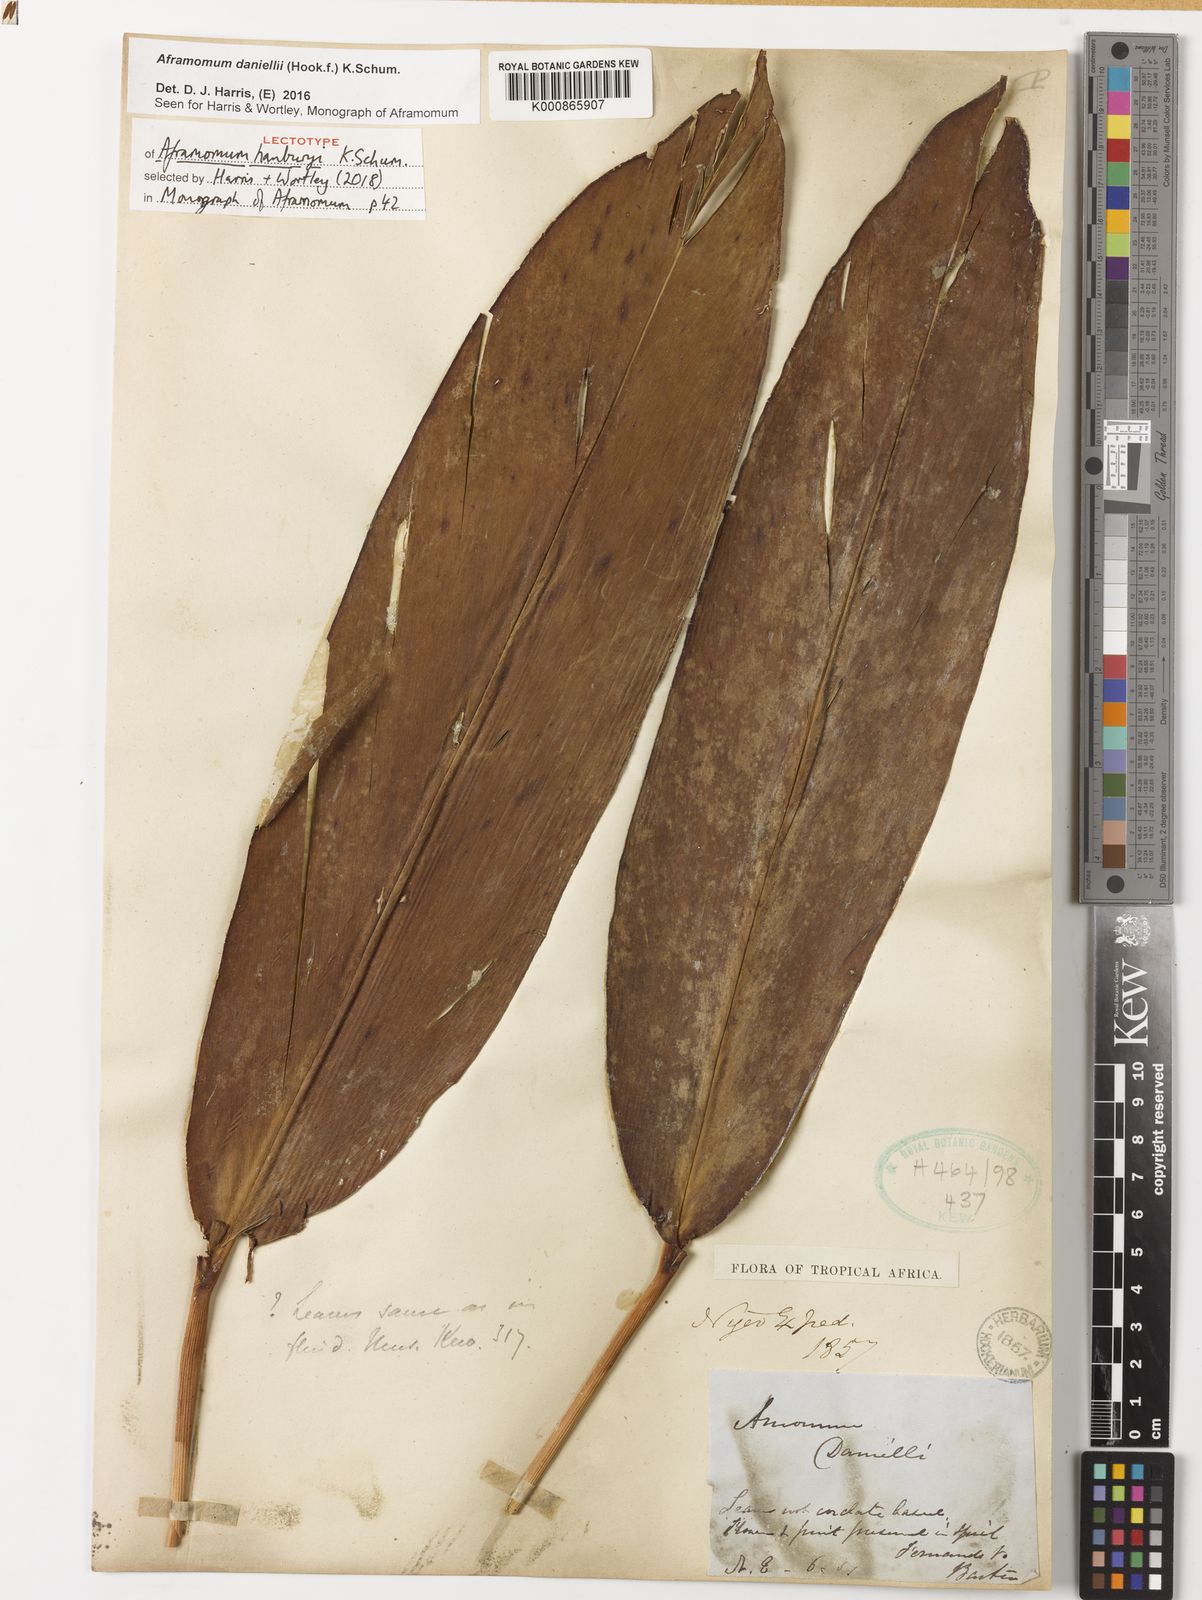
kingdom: Plantae
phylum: Tracheophyta
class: Liliopsida
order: Zingiberales
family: Zingiberaceae
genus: Aframomum
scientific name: Aframomum daniellii
